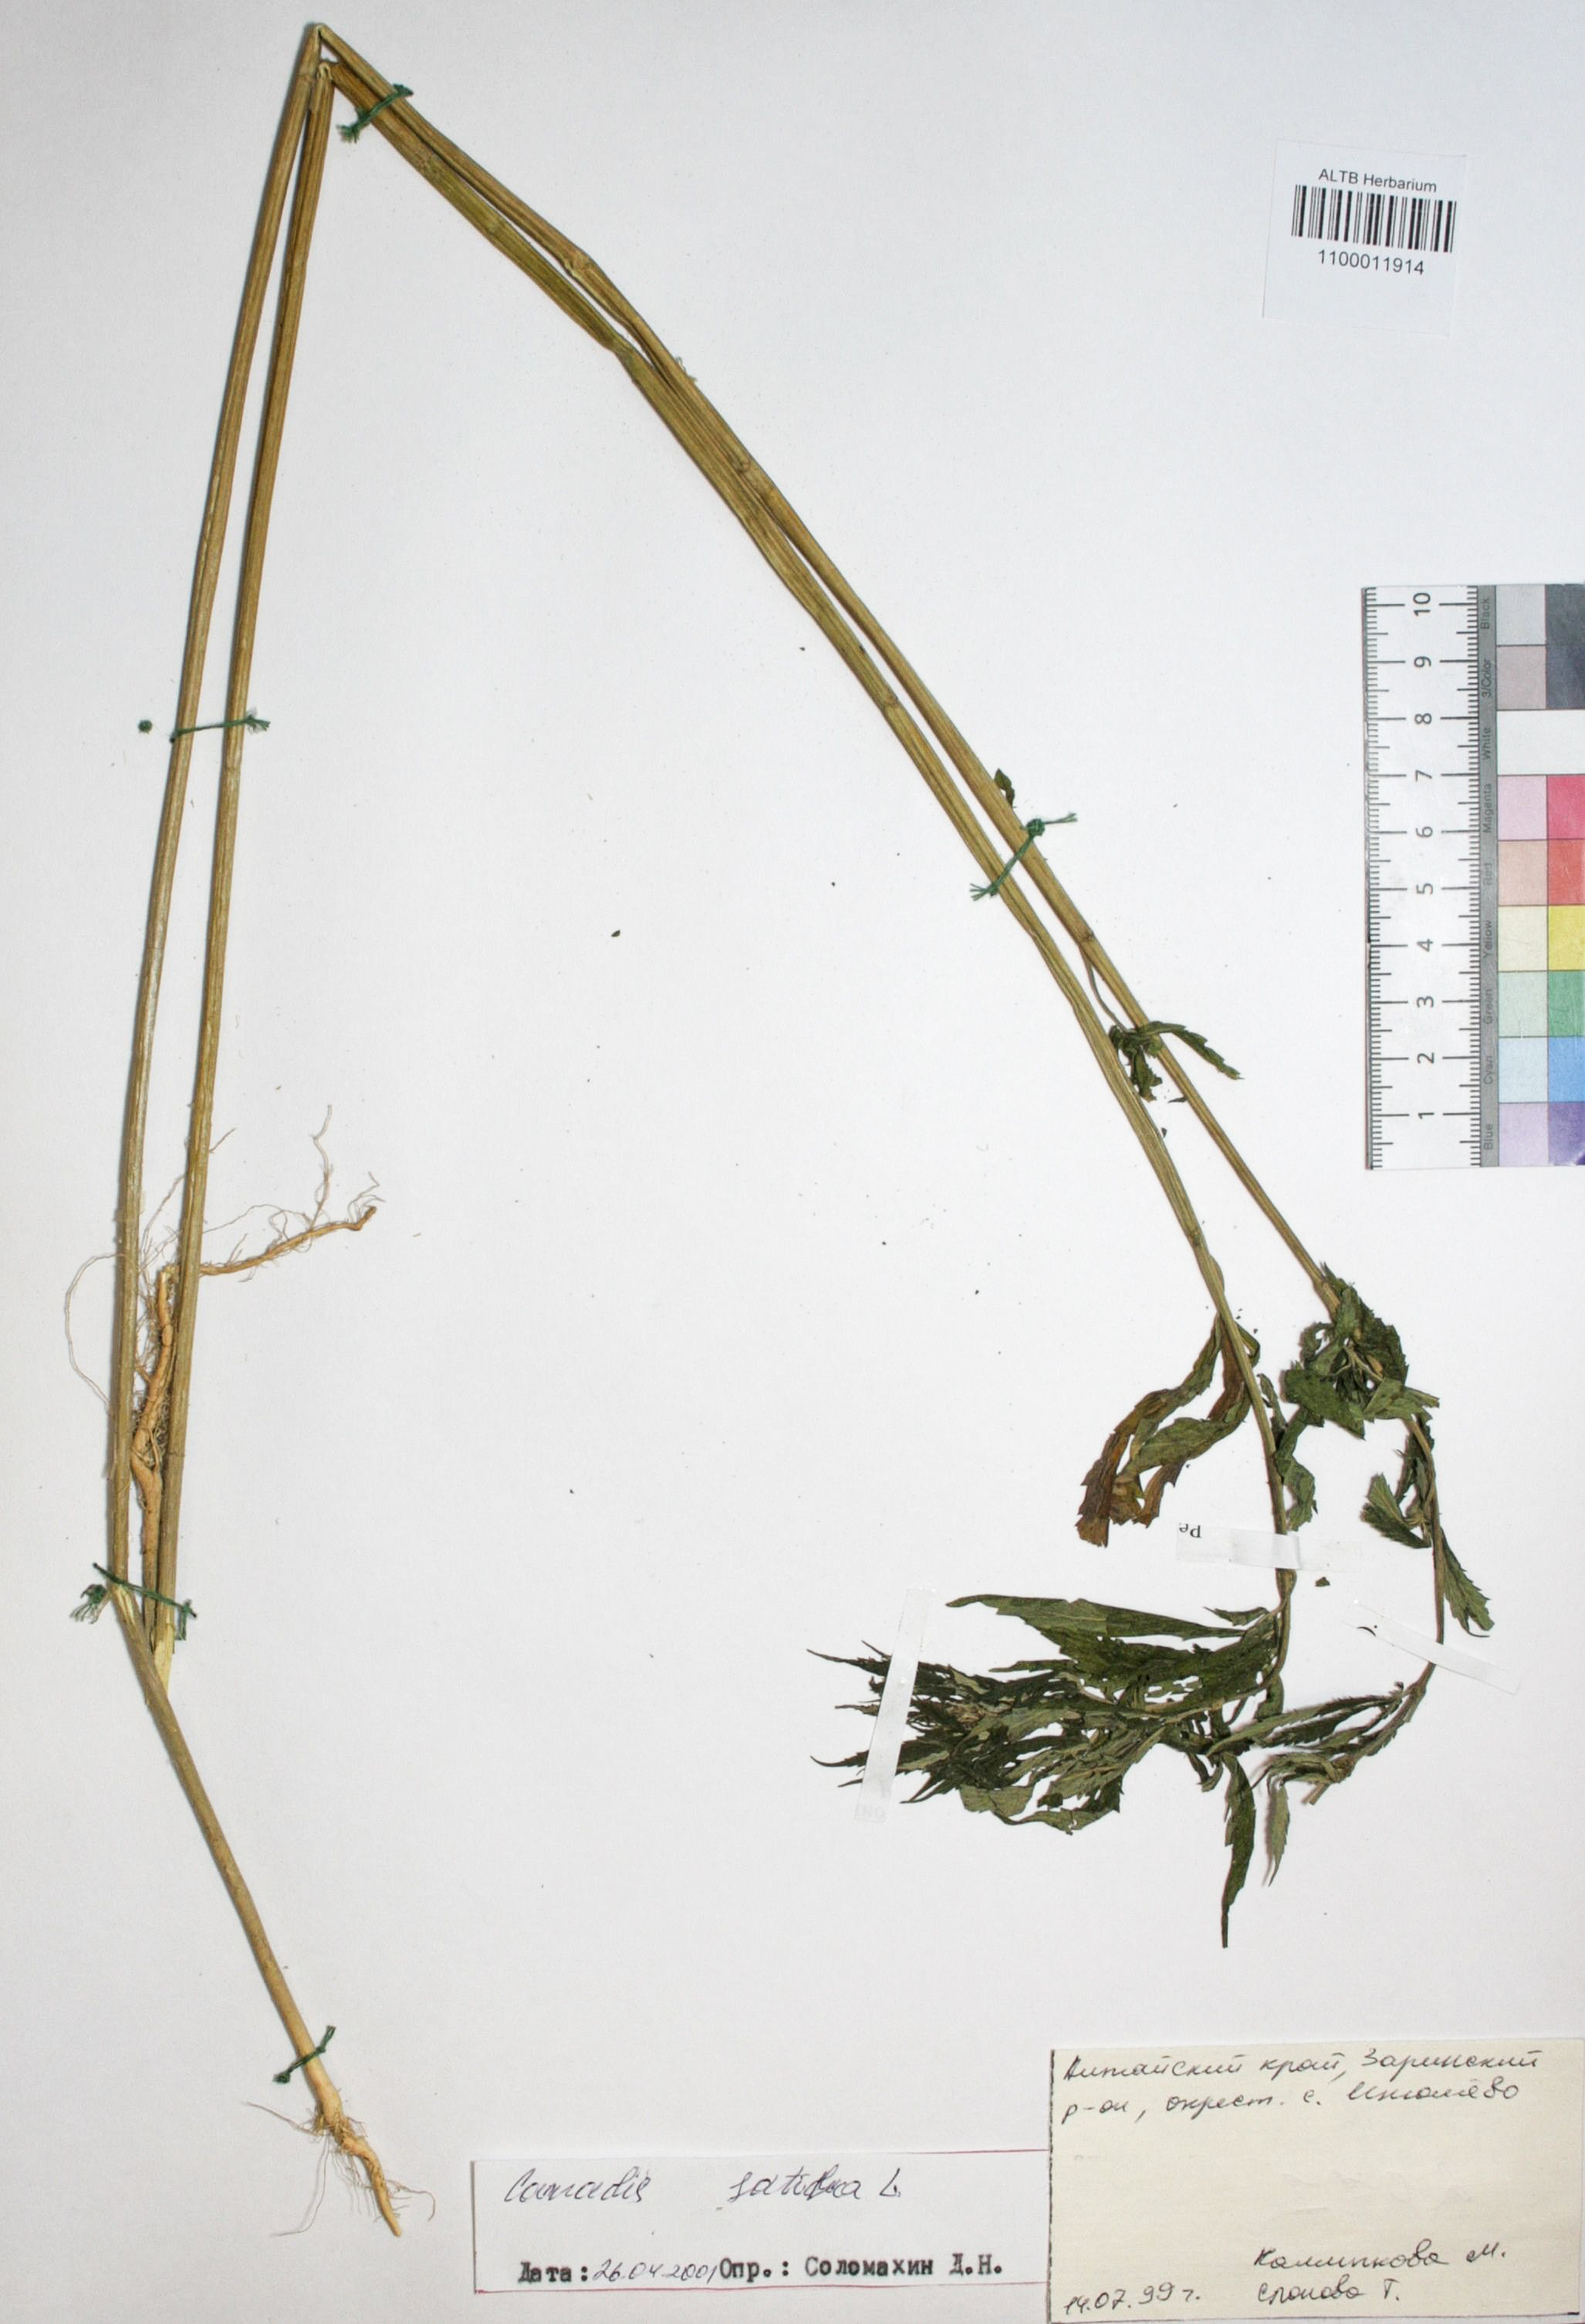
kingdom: Plantae
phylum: Tracheophyta
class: Magnoliopsida
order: Rosales
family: Cannabaceae
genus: Cannabis
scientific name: Cannabis sativa
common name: Hemp
